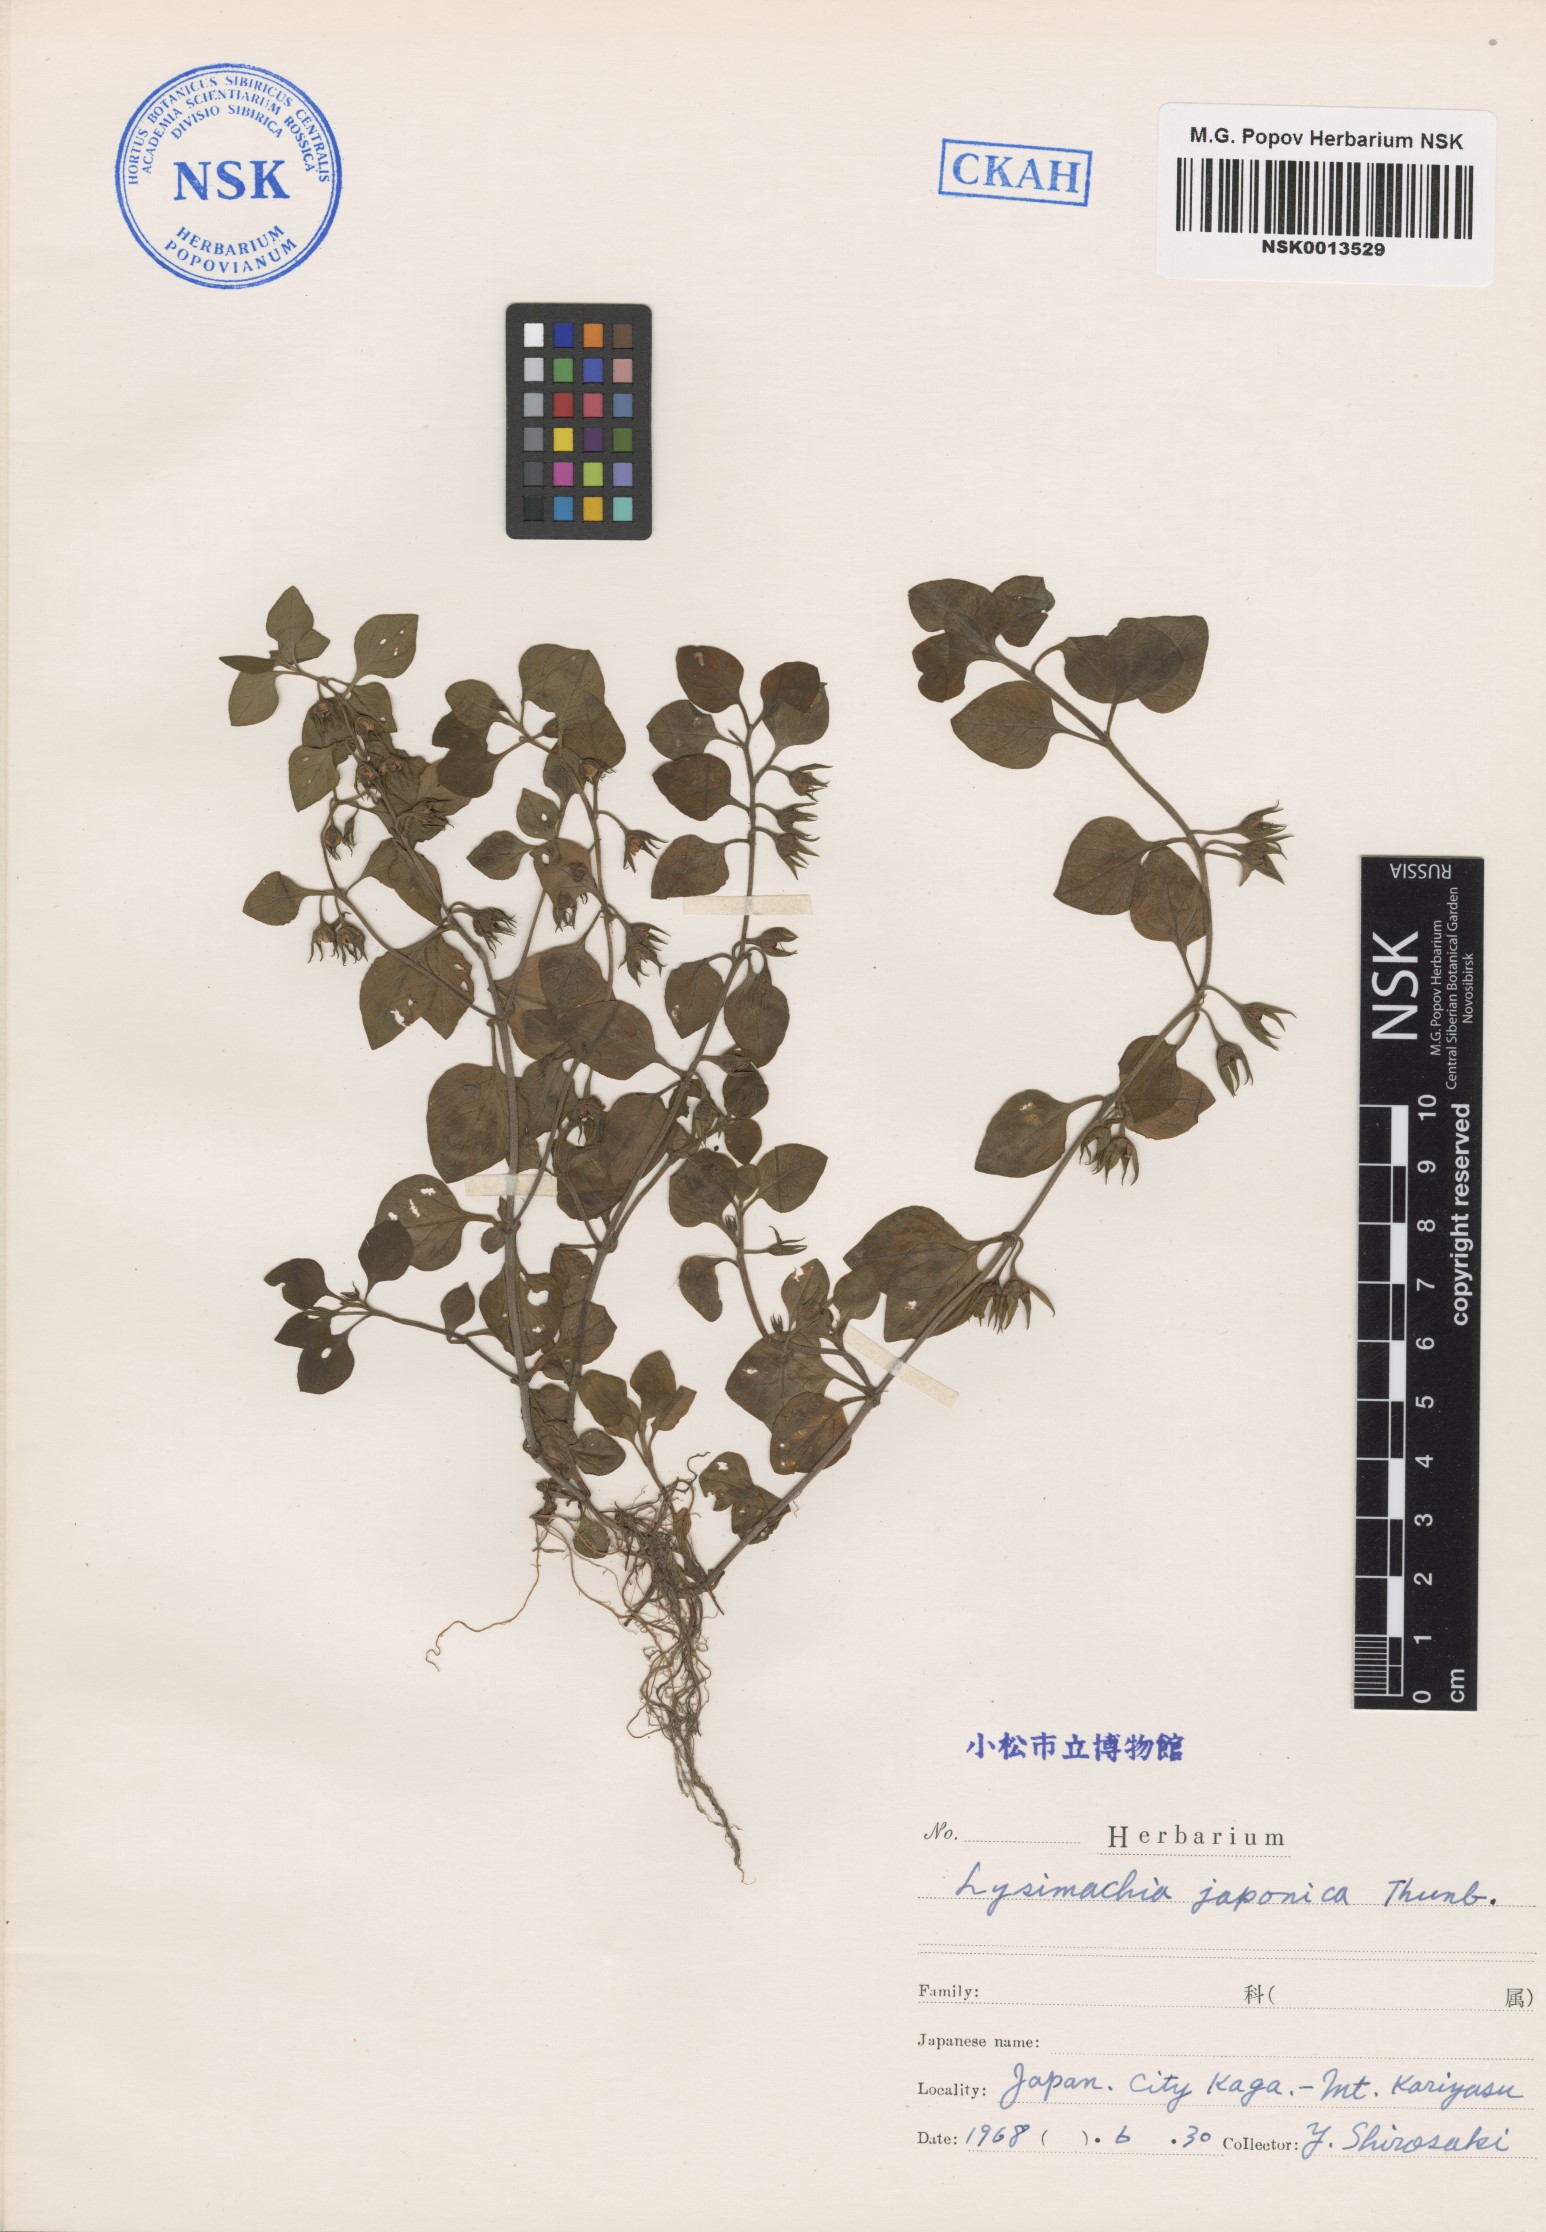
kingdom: Plantae
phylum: Tracheophyta
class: Magnoliopsida
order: Ericales
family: Primulaceae
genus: Lysimachia
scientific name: Lysimachia japonica
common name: Japanese yellow loosestrife
